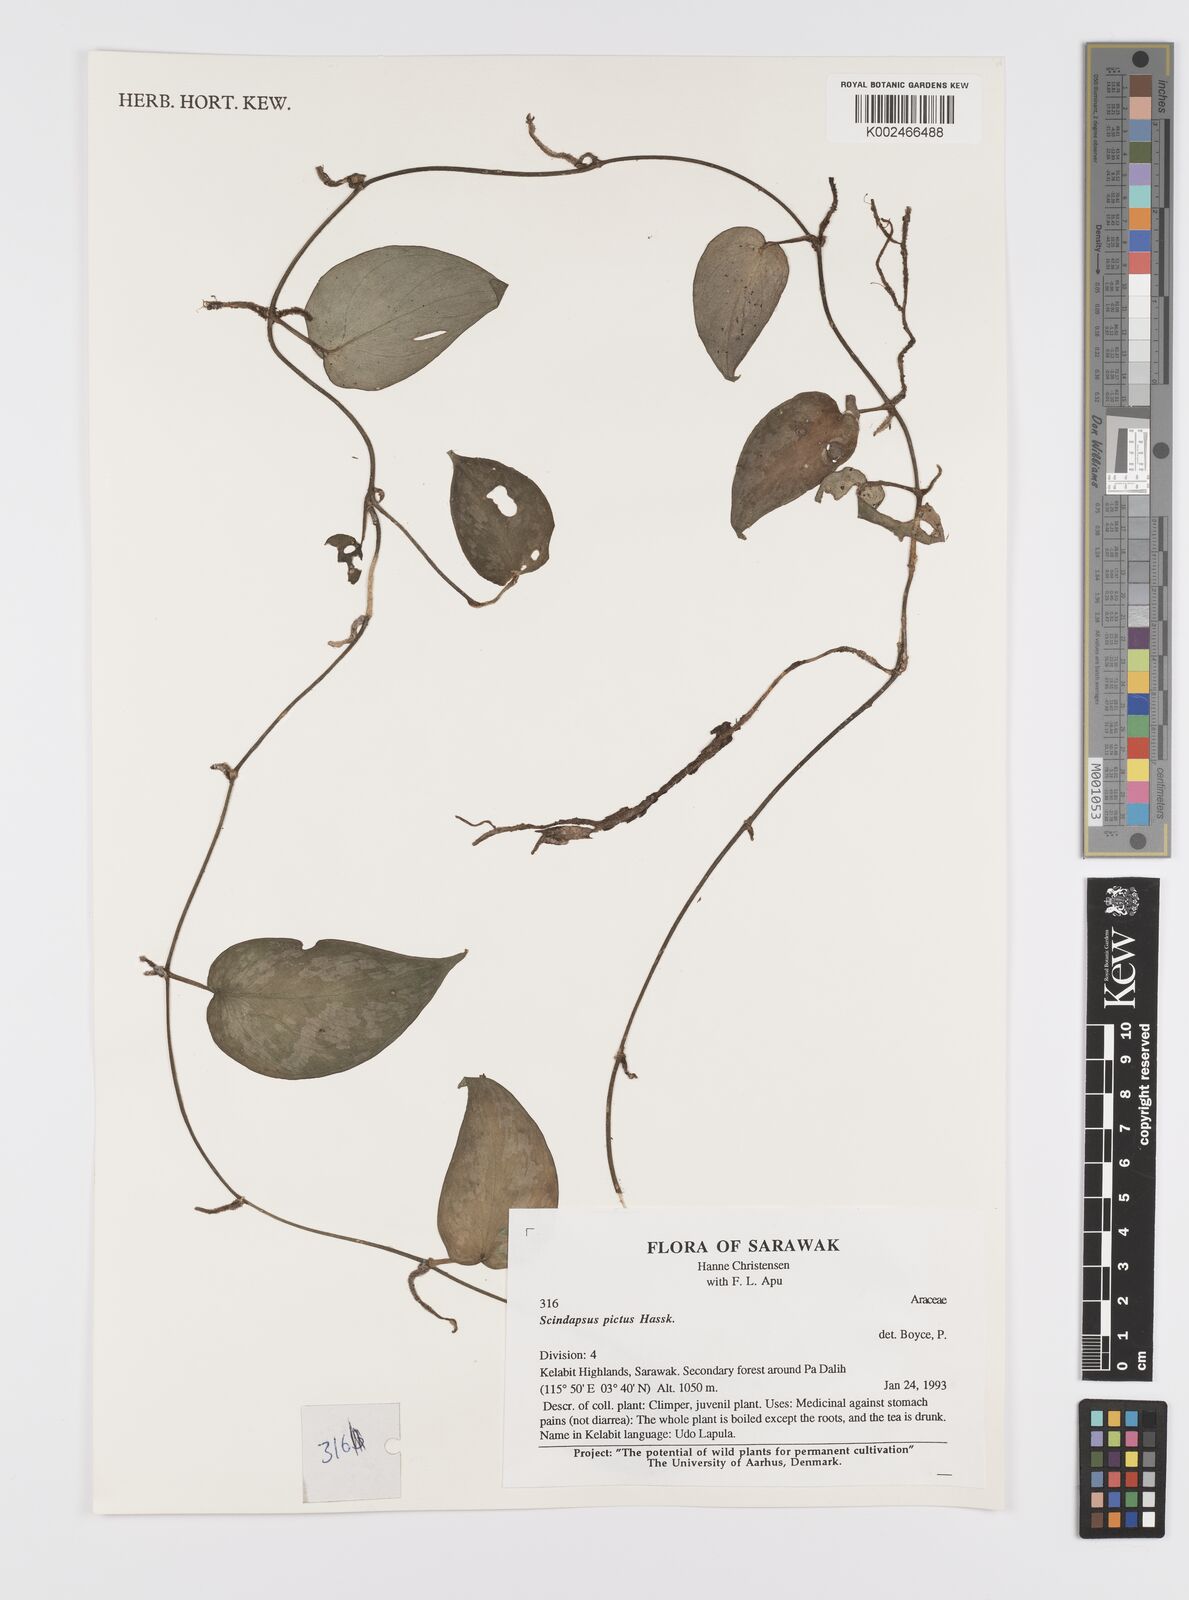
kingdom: Plantae
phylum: Tracheophyta
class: Liliopsida
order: Alismatales
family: Araceae
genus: Scindapsus
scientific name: Scindapsus pictus
